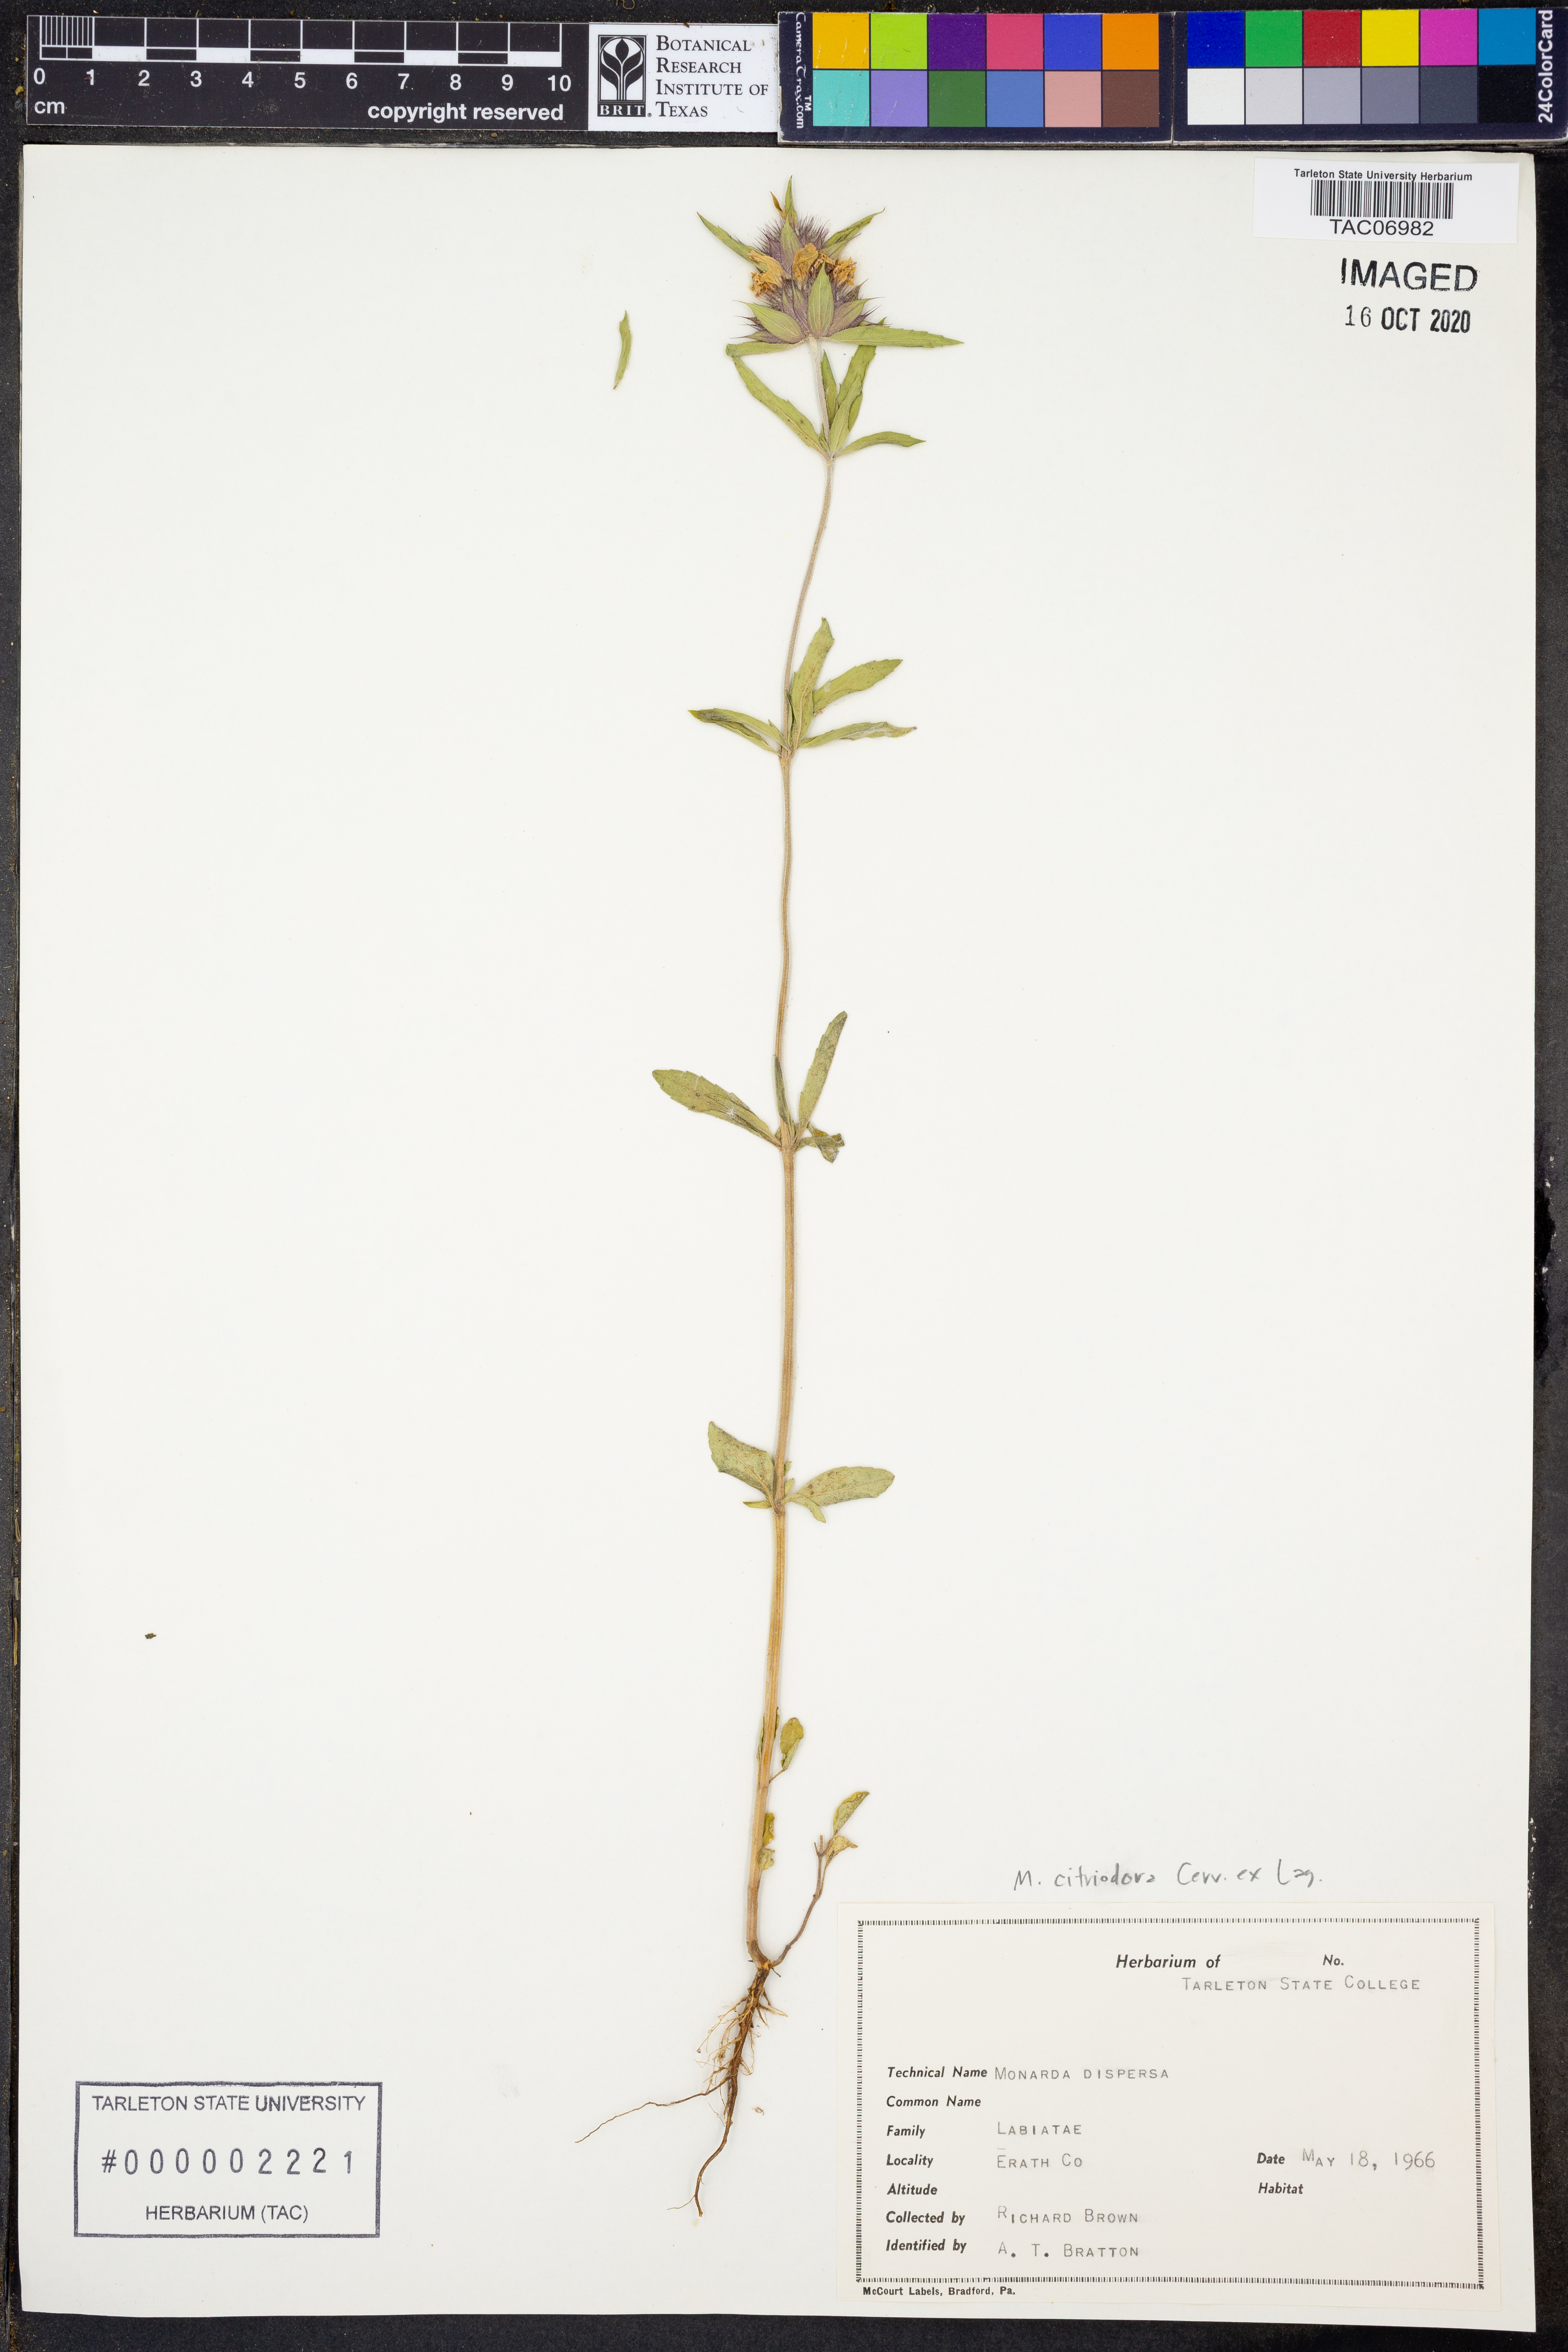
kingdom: Plantae
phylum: Tracheophyta
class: Magnoliopsida
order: Lamiales
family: Lamiaceae
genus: Monarda
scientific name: Monarda citriodora
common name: Lemon beebalm
